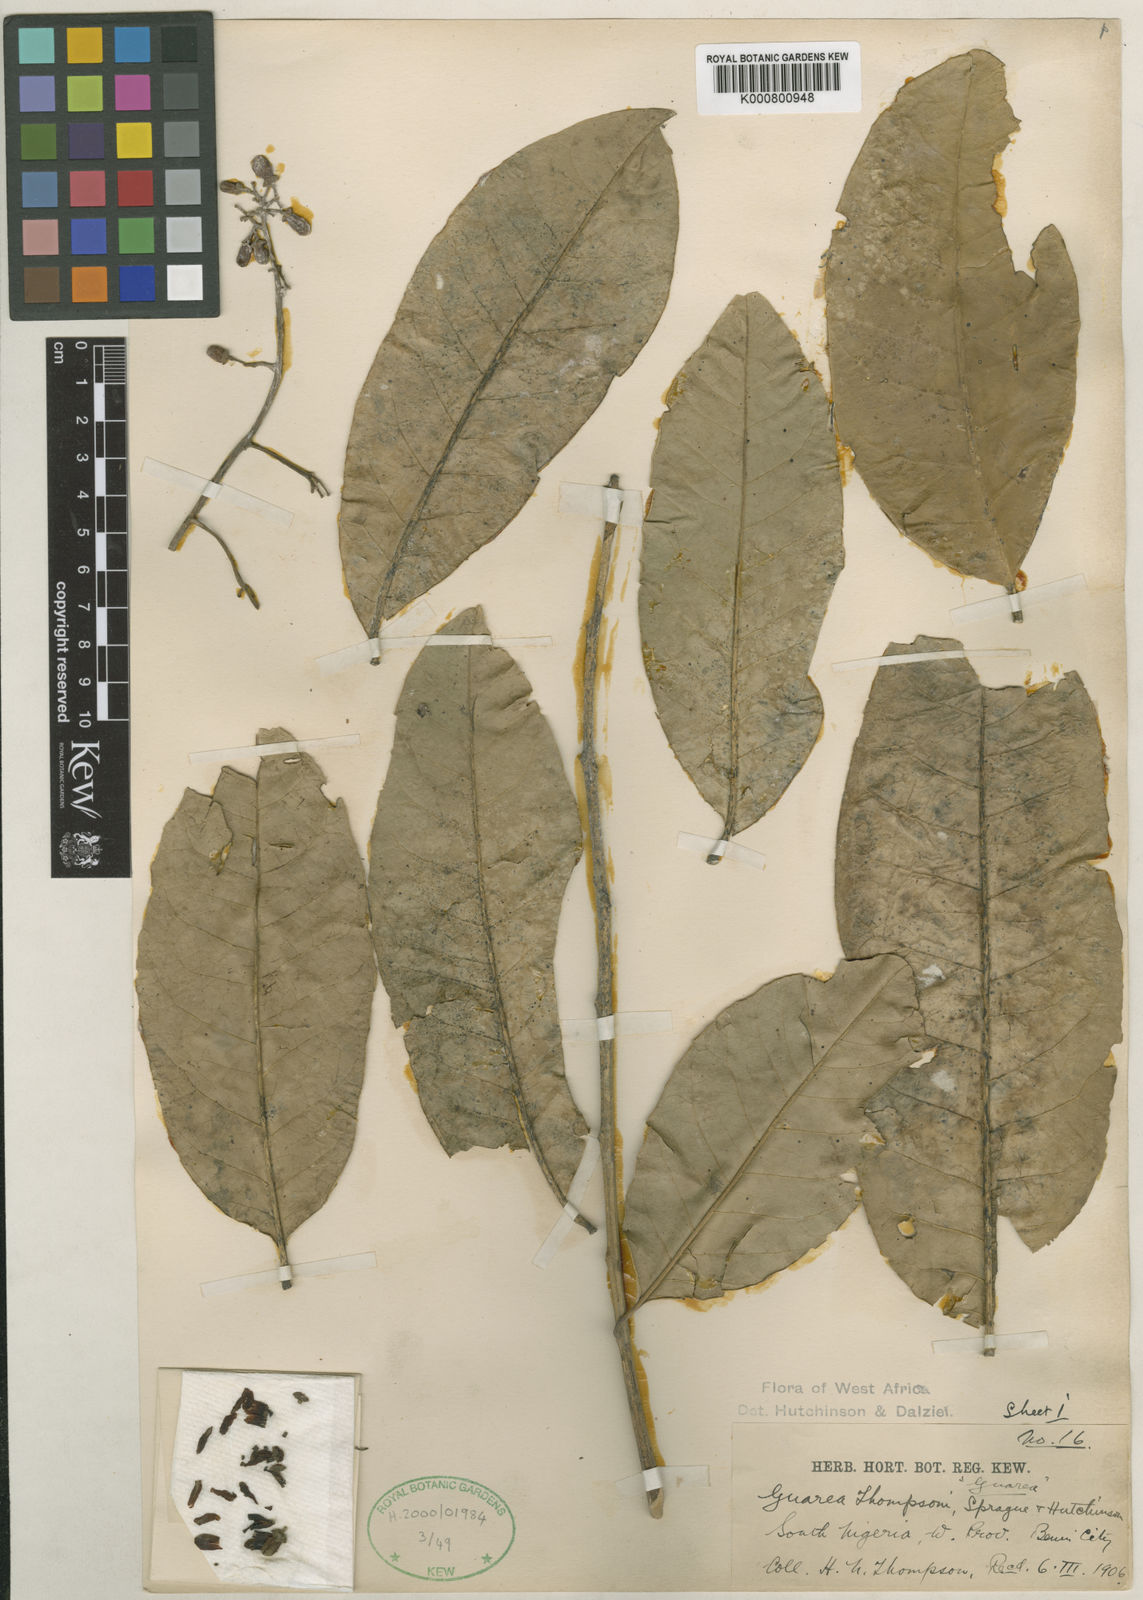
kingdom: Plantae
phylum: Tracheophyta
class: Magnoliopsida
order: Sapindales
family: Meliaceae
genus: Leplaea
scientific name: Leplaea thompsonii
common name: Black guarea
